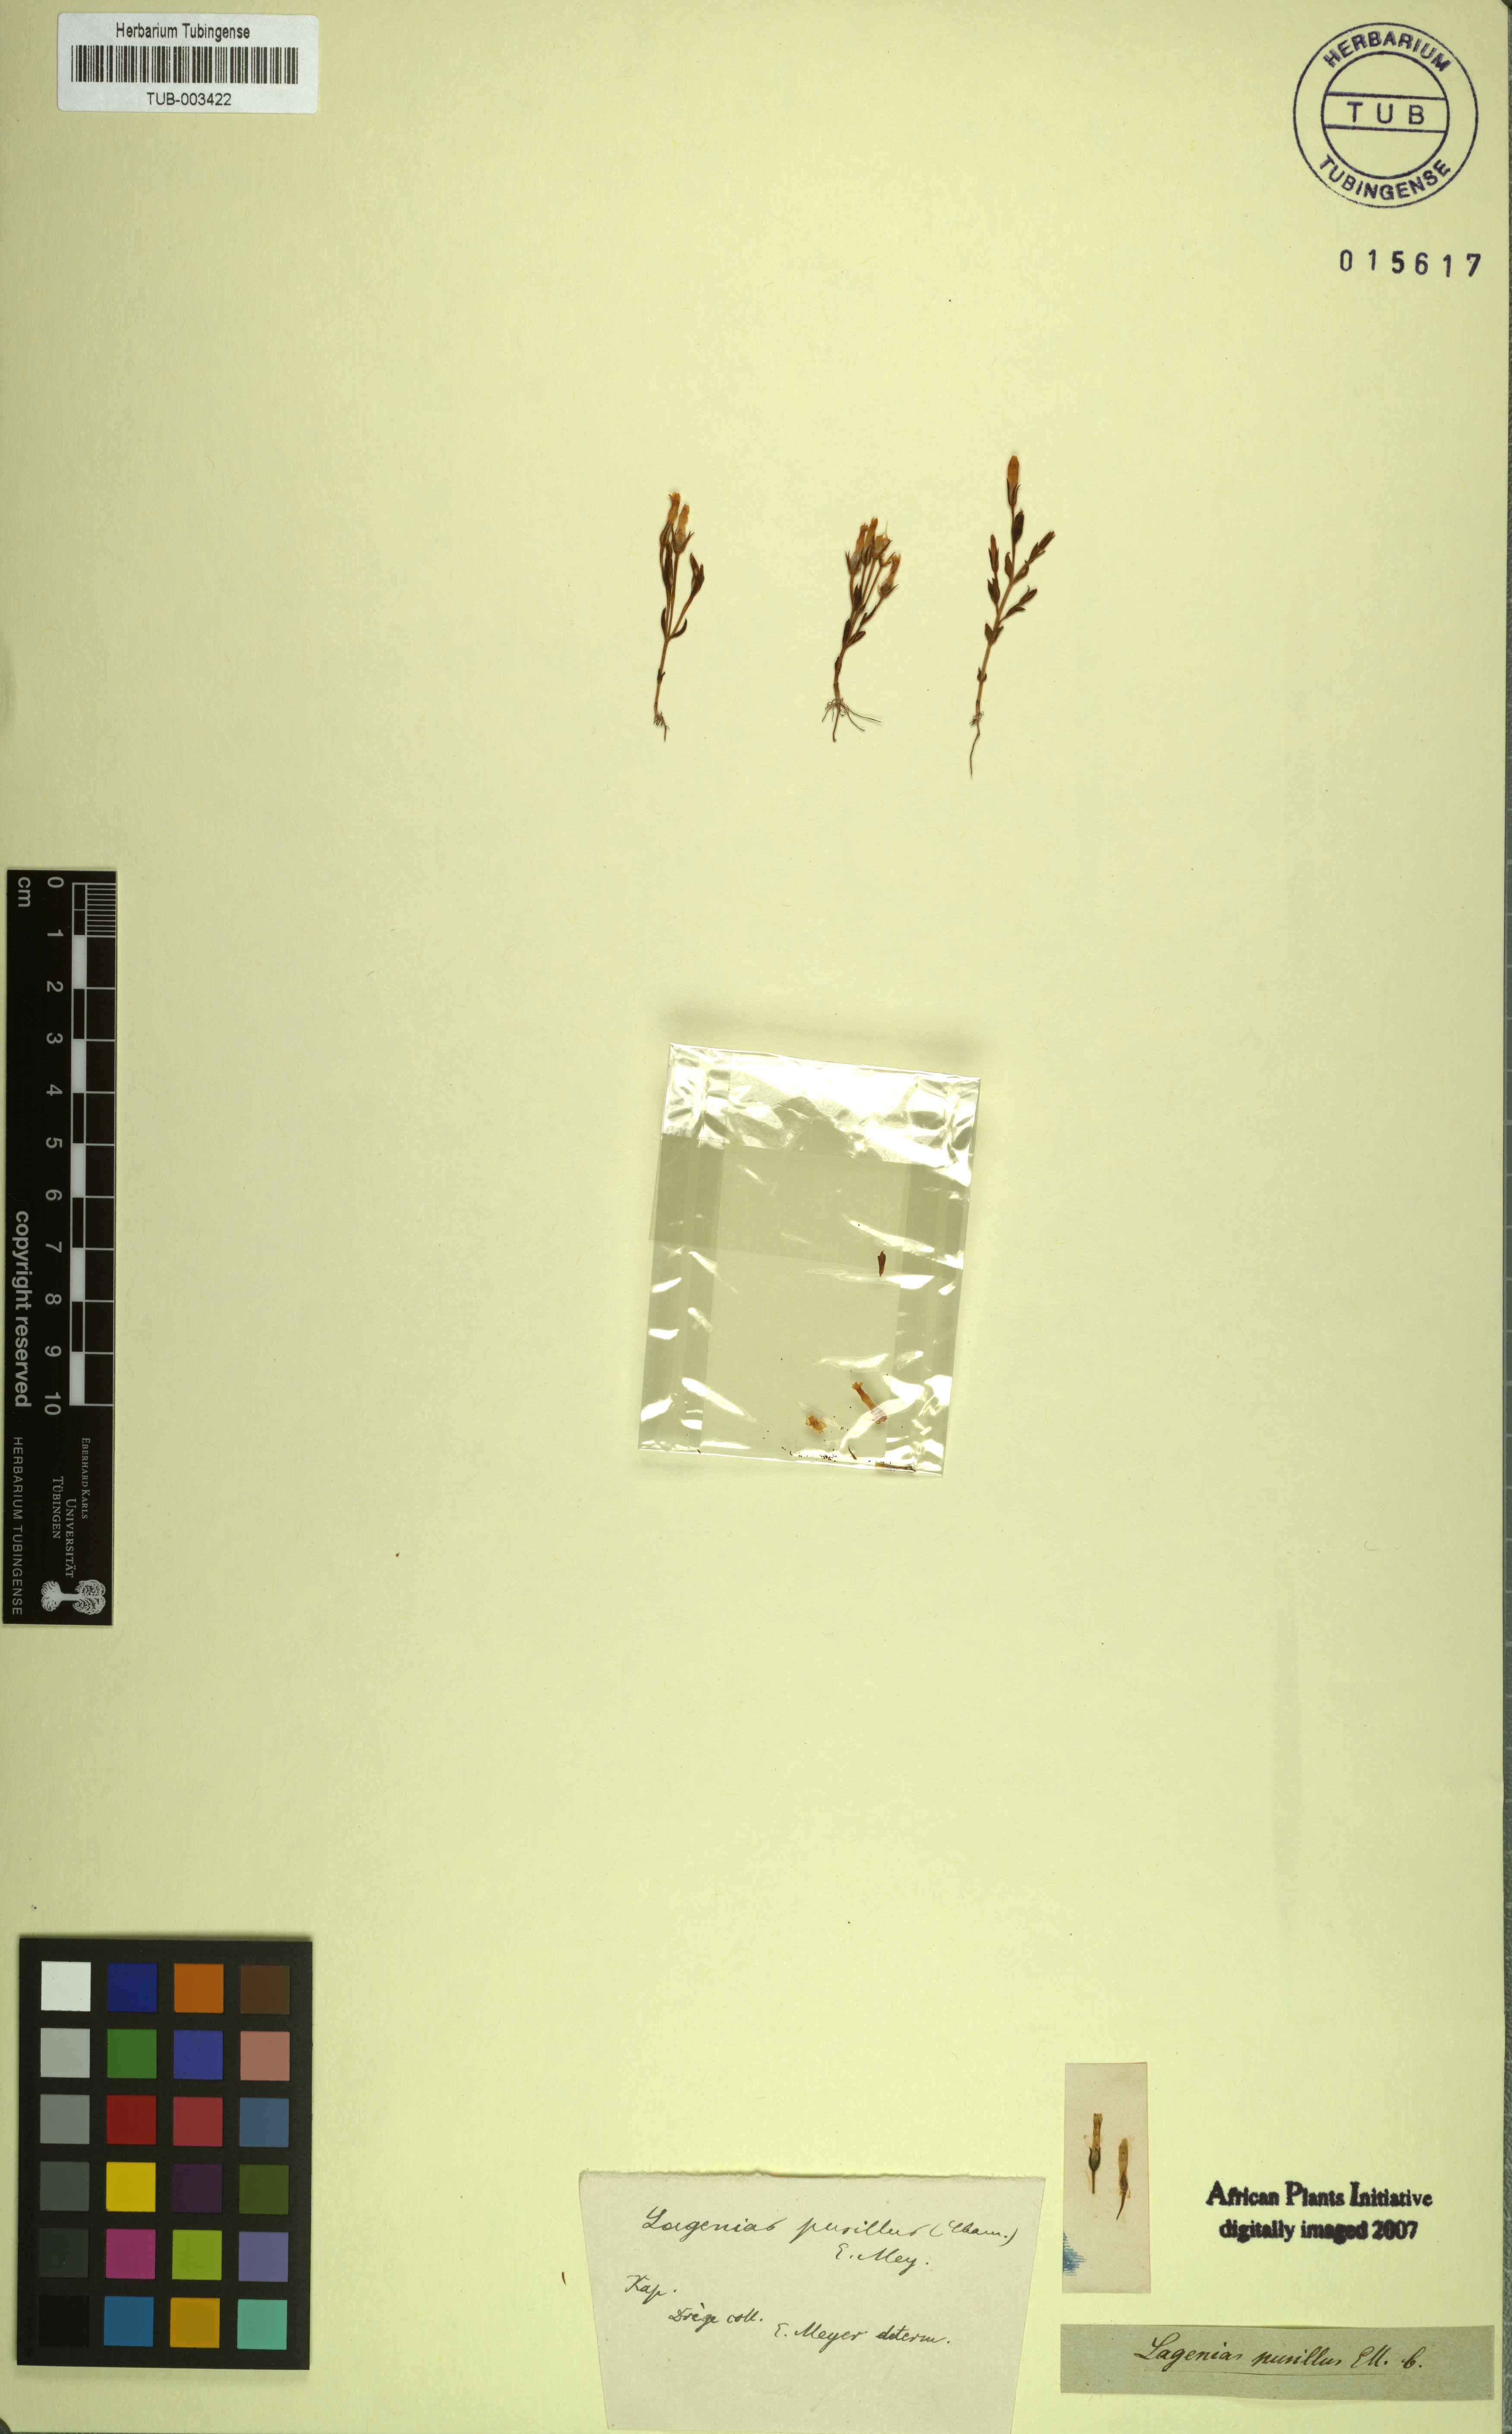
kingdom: Plantae
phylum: Tracheophyta
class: Magnoliopsida
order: Gentianales
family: Gentianaceae
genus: Sebaea
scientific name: Sebaea pusilla
